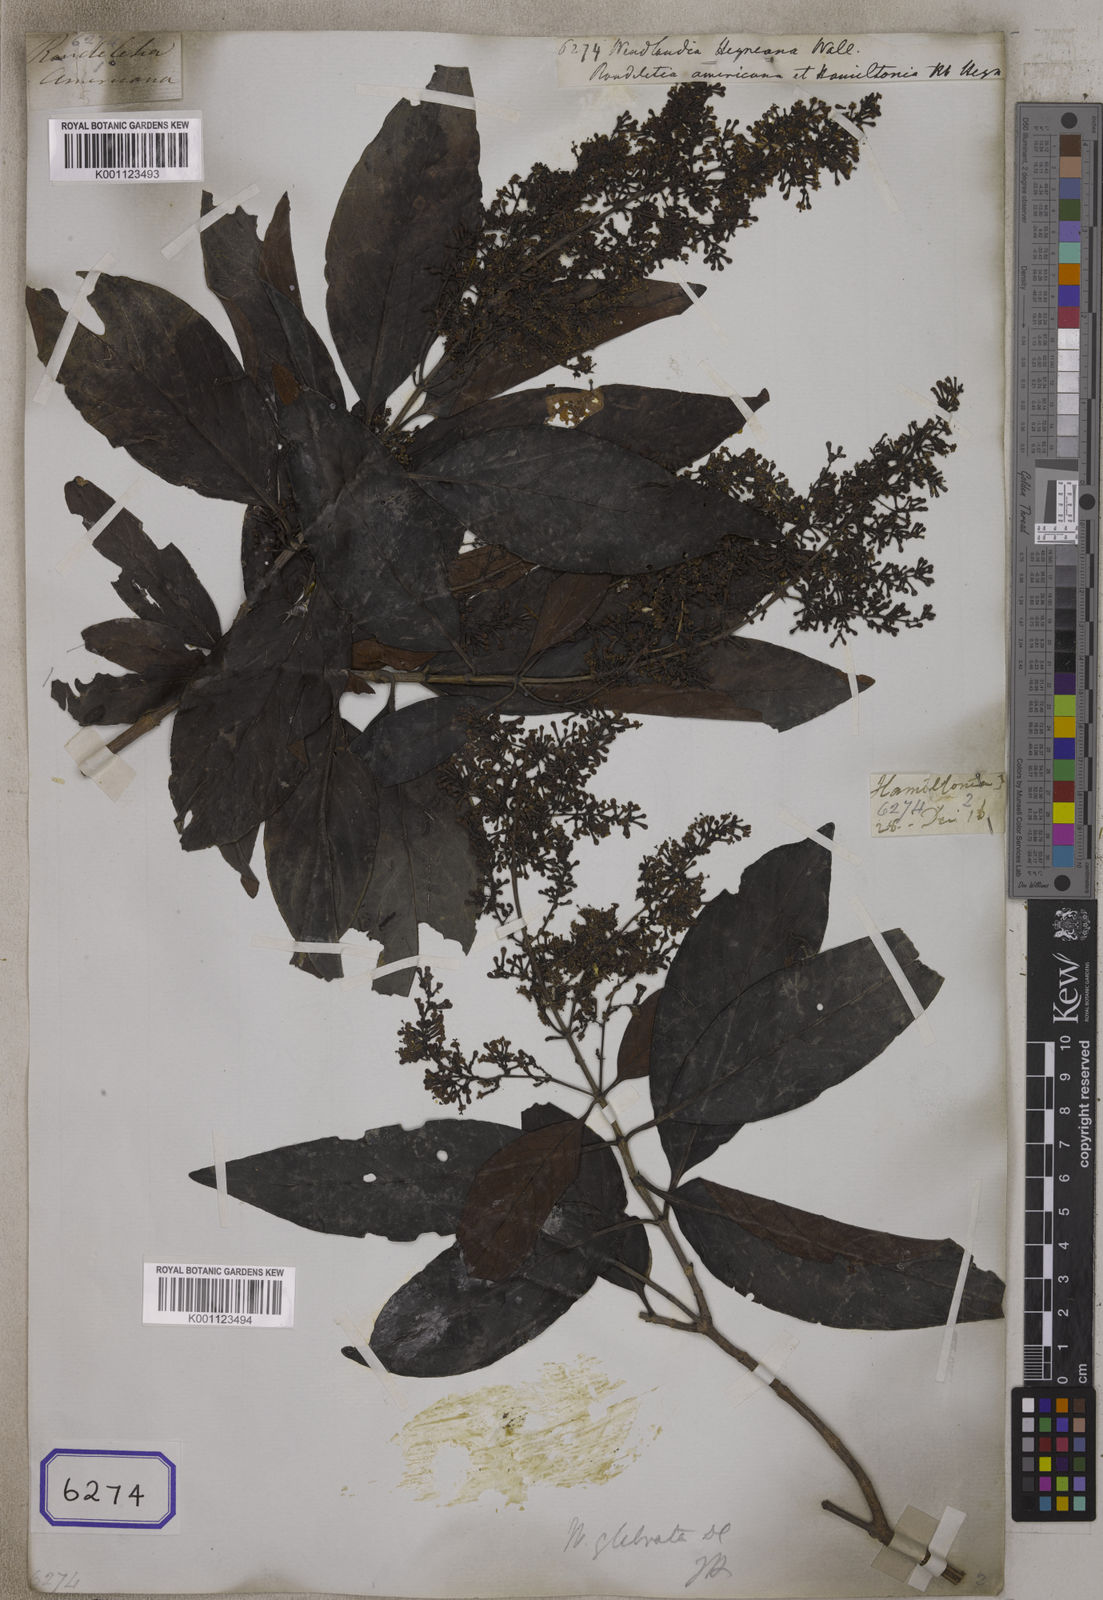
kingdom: Plantae
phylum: Tracheophyta
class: Magnoliopsida
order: Gentianales
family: Rubiaceae
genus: Wendlandia
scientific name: Wendlandia
